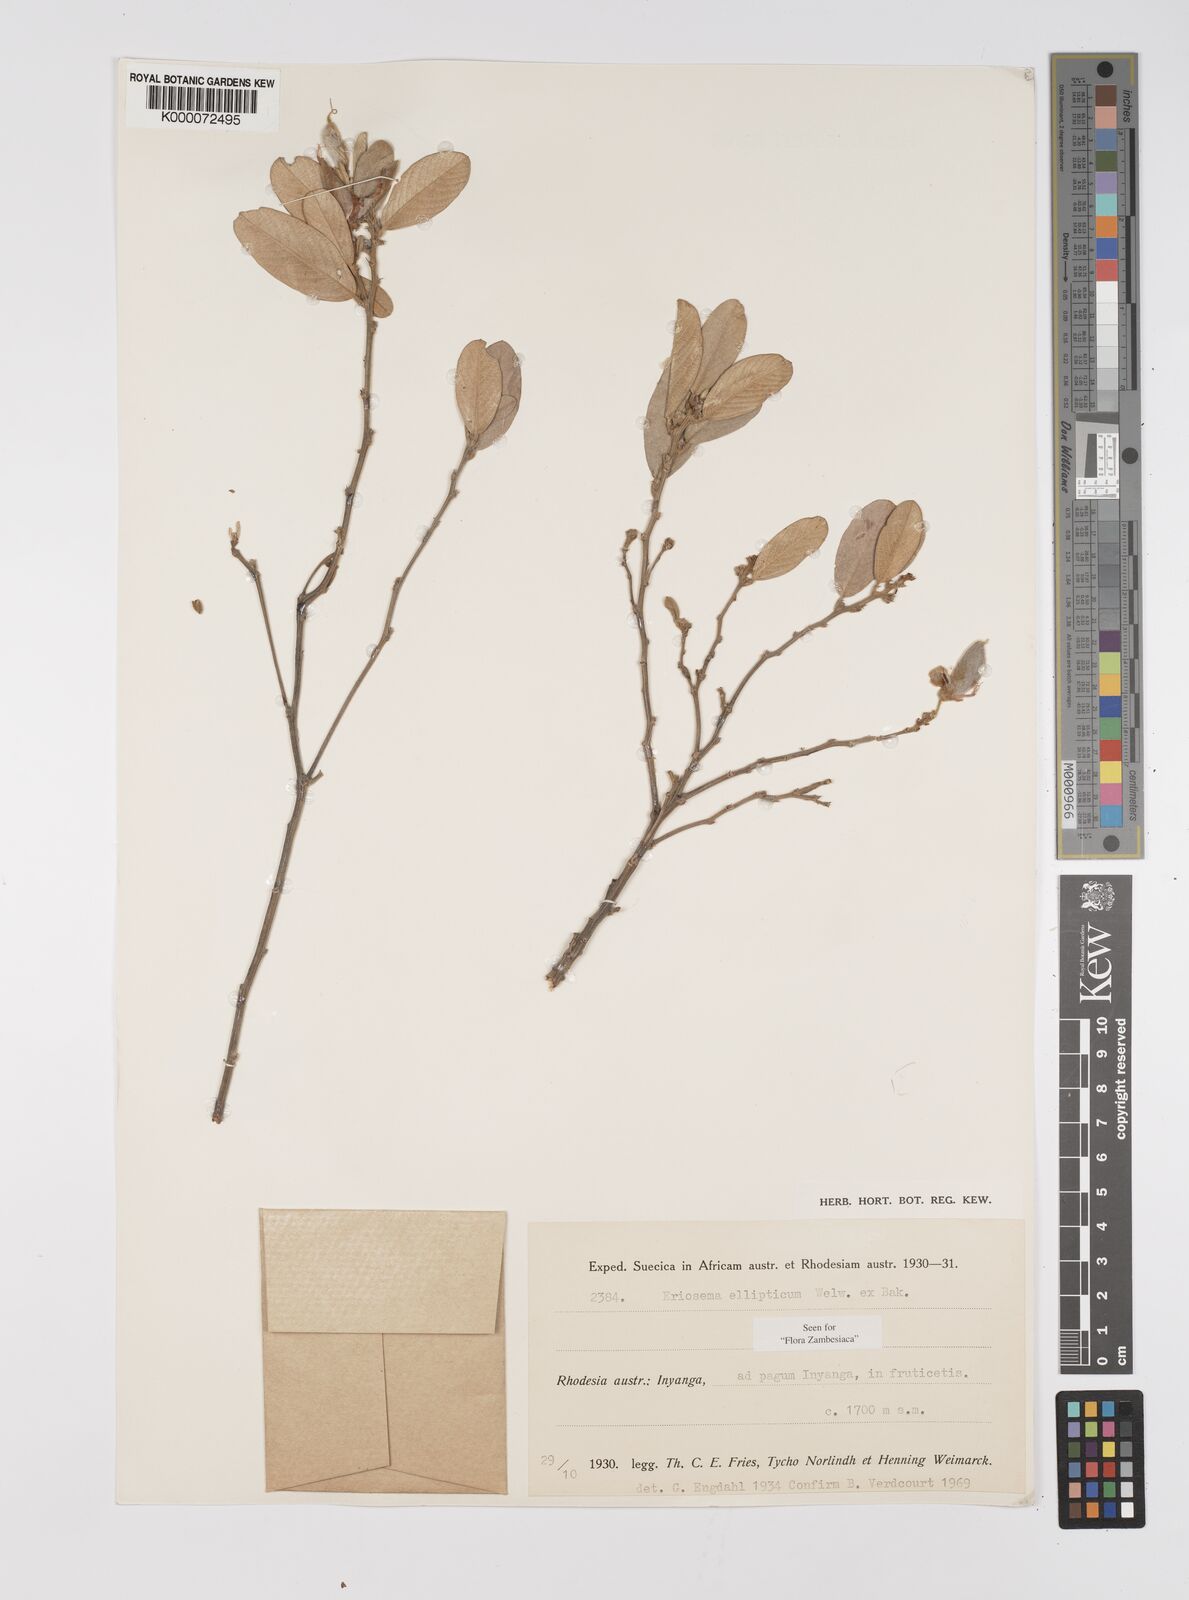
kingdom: Plantae
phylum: Tracheophyta
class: Magnoliopsida
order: Fabales
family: Fabaceae
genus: Eriosema
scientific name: Eriosema ellipticum
